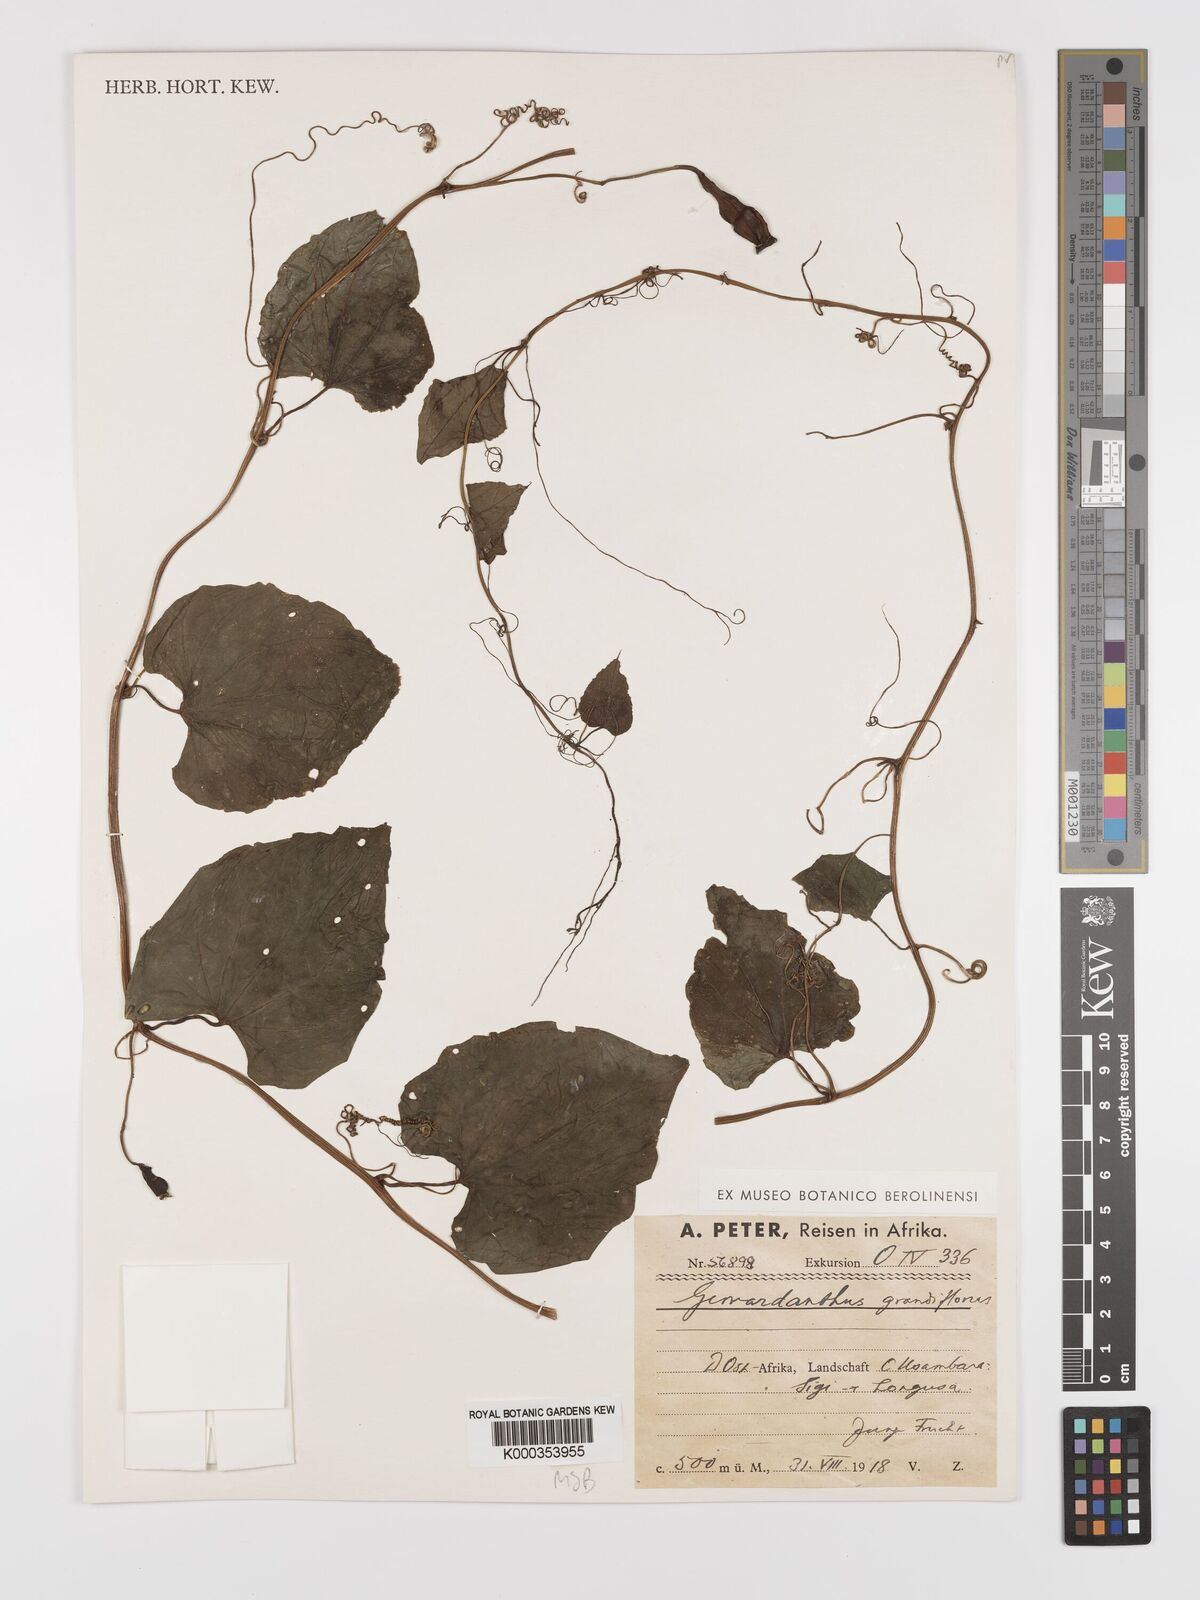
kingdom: Plantae
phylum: Tracheophyta
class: Magnoliopsida
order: Cucurbitales
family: Cucurbitaceae
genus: Gerrardanthus
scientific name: Gerrardanthus
